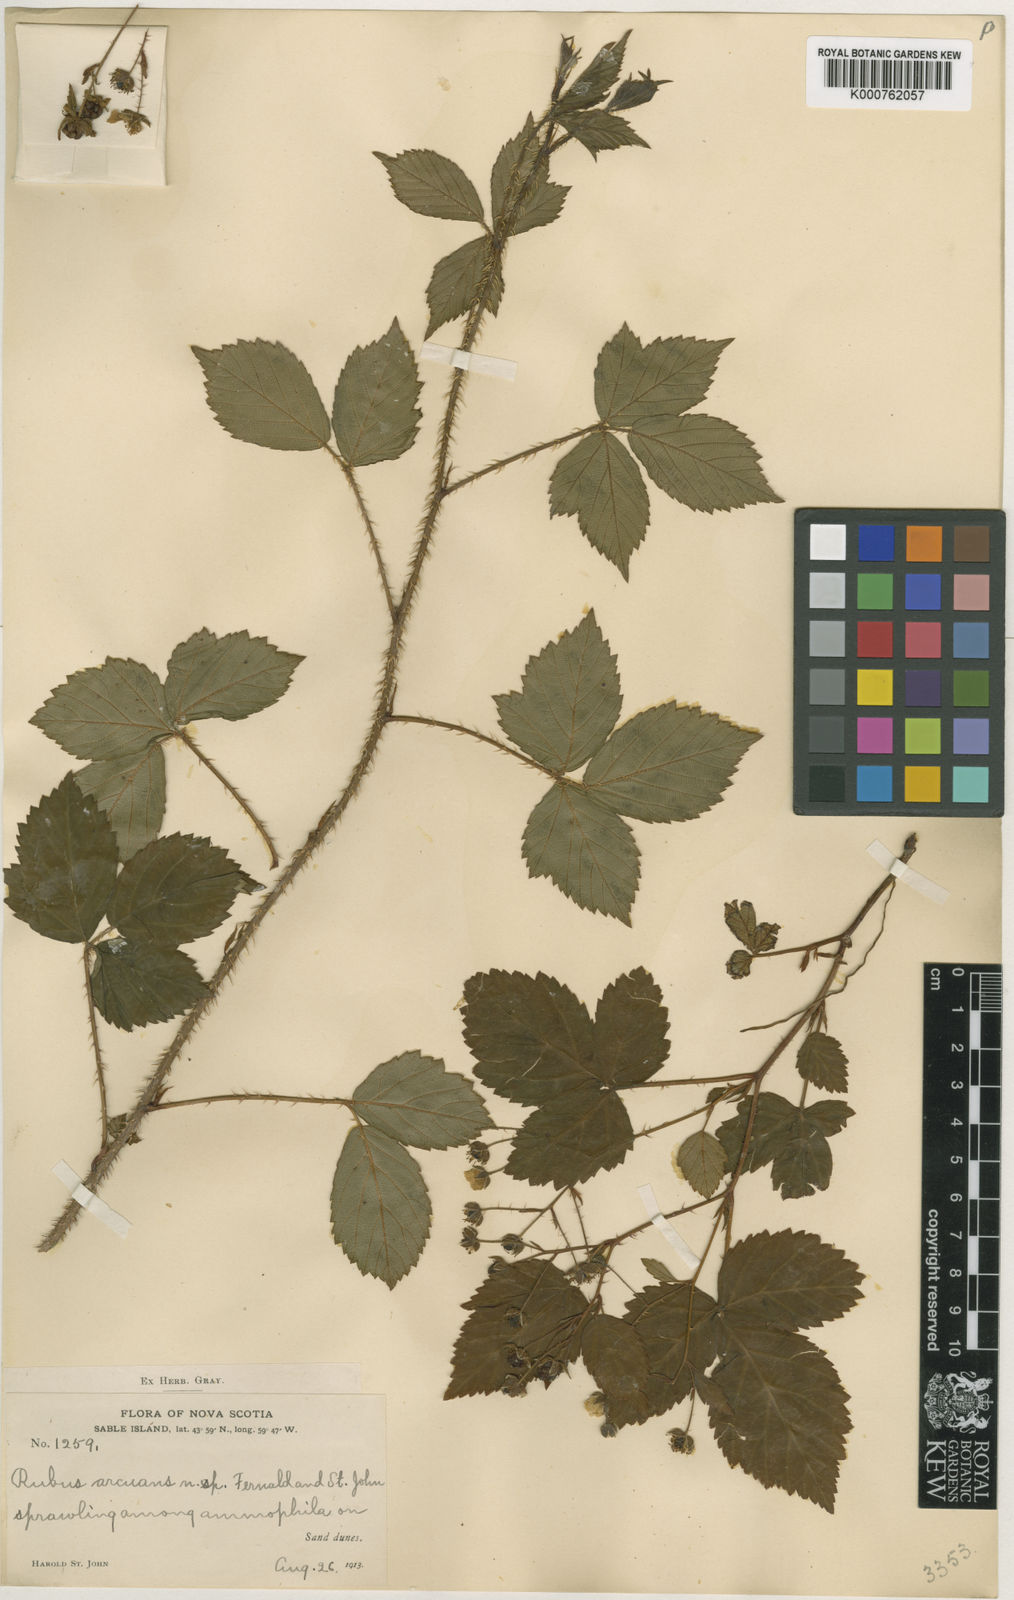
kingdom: Plantae
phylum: Tracheophyta
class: Magnoliopsida
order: Rosales
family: Rosaceae
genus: Rubus
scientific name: Rubus biformispinus
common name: Pasture dewberry
